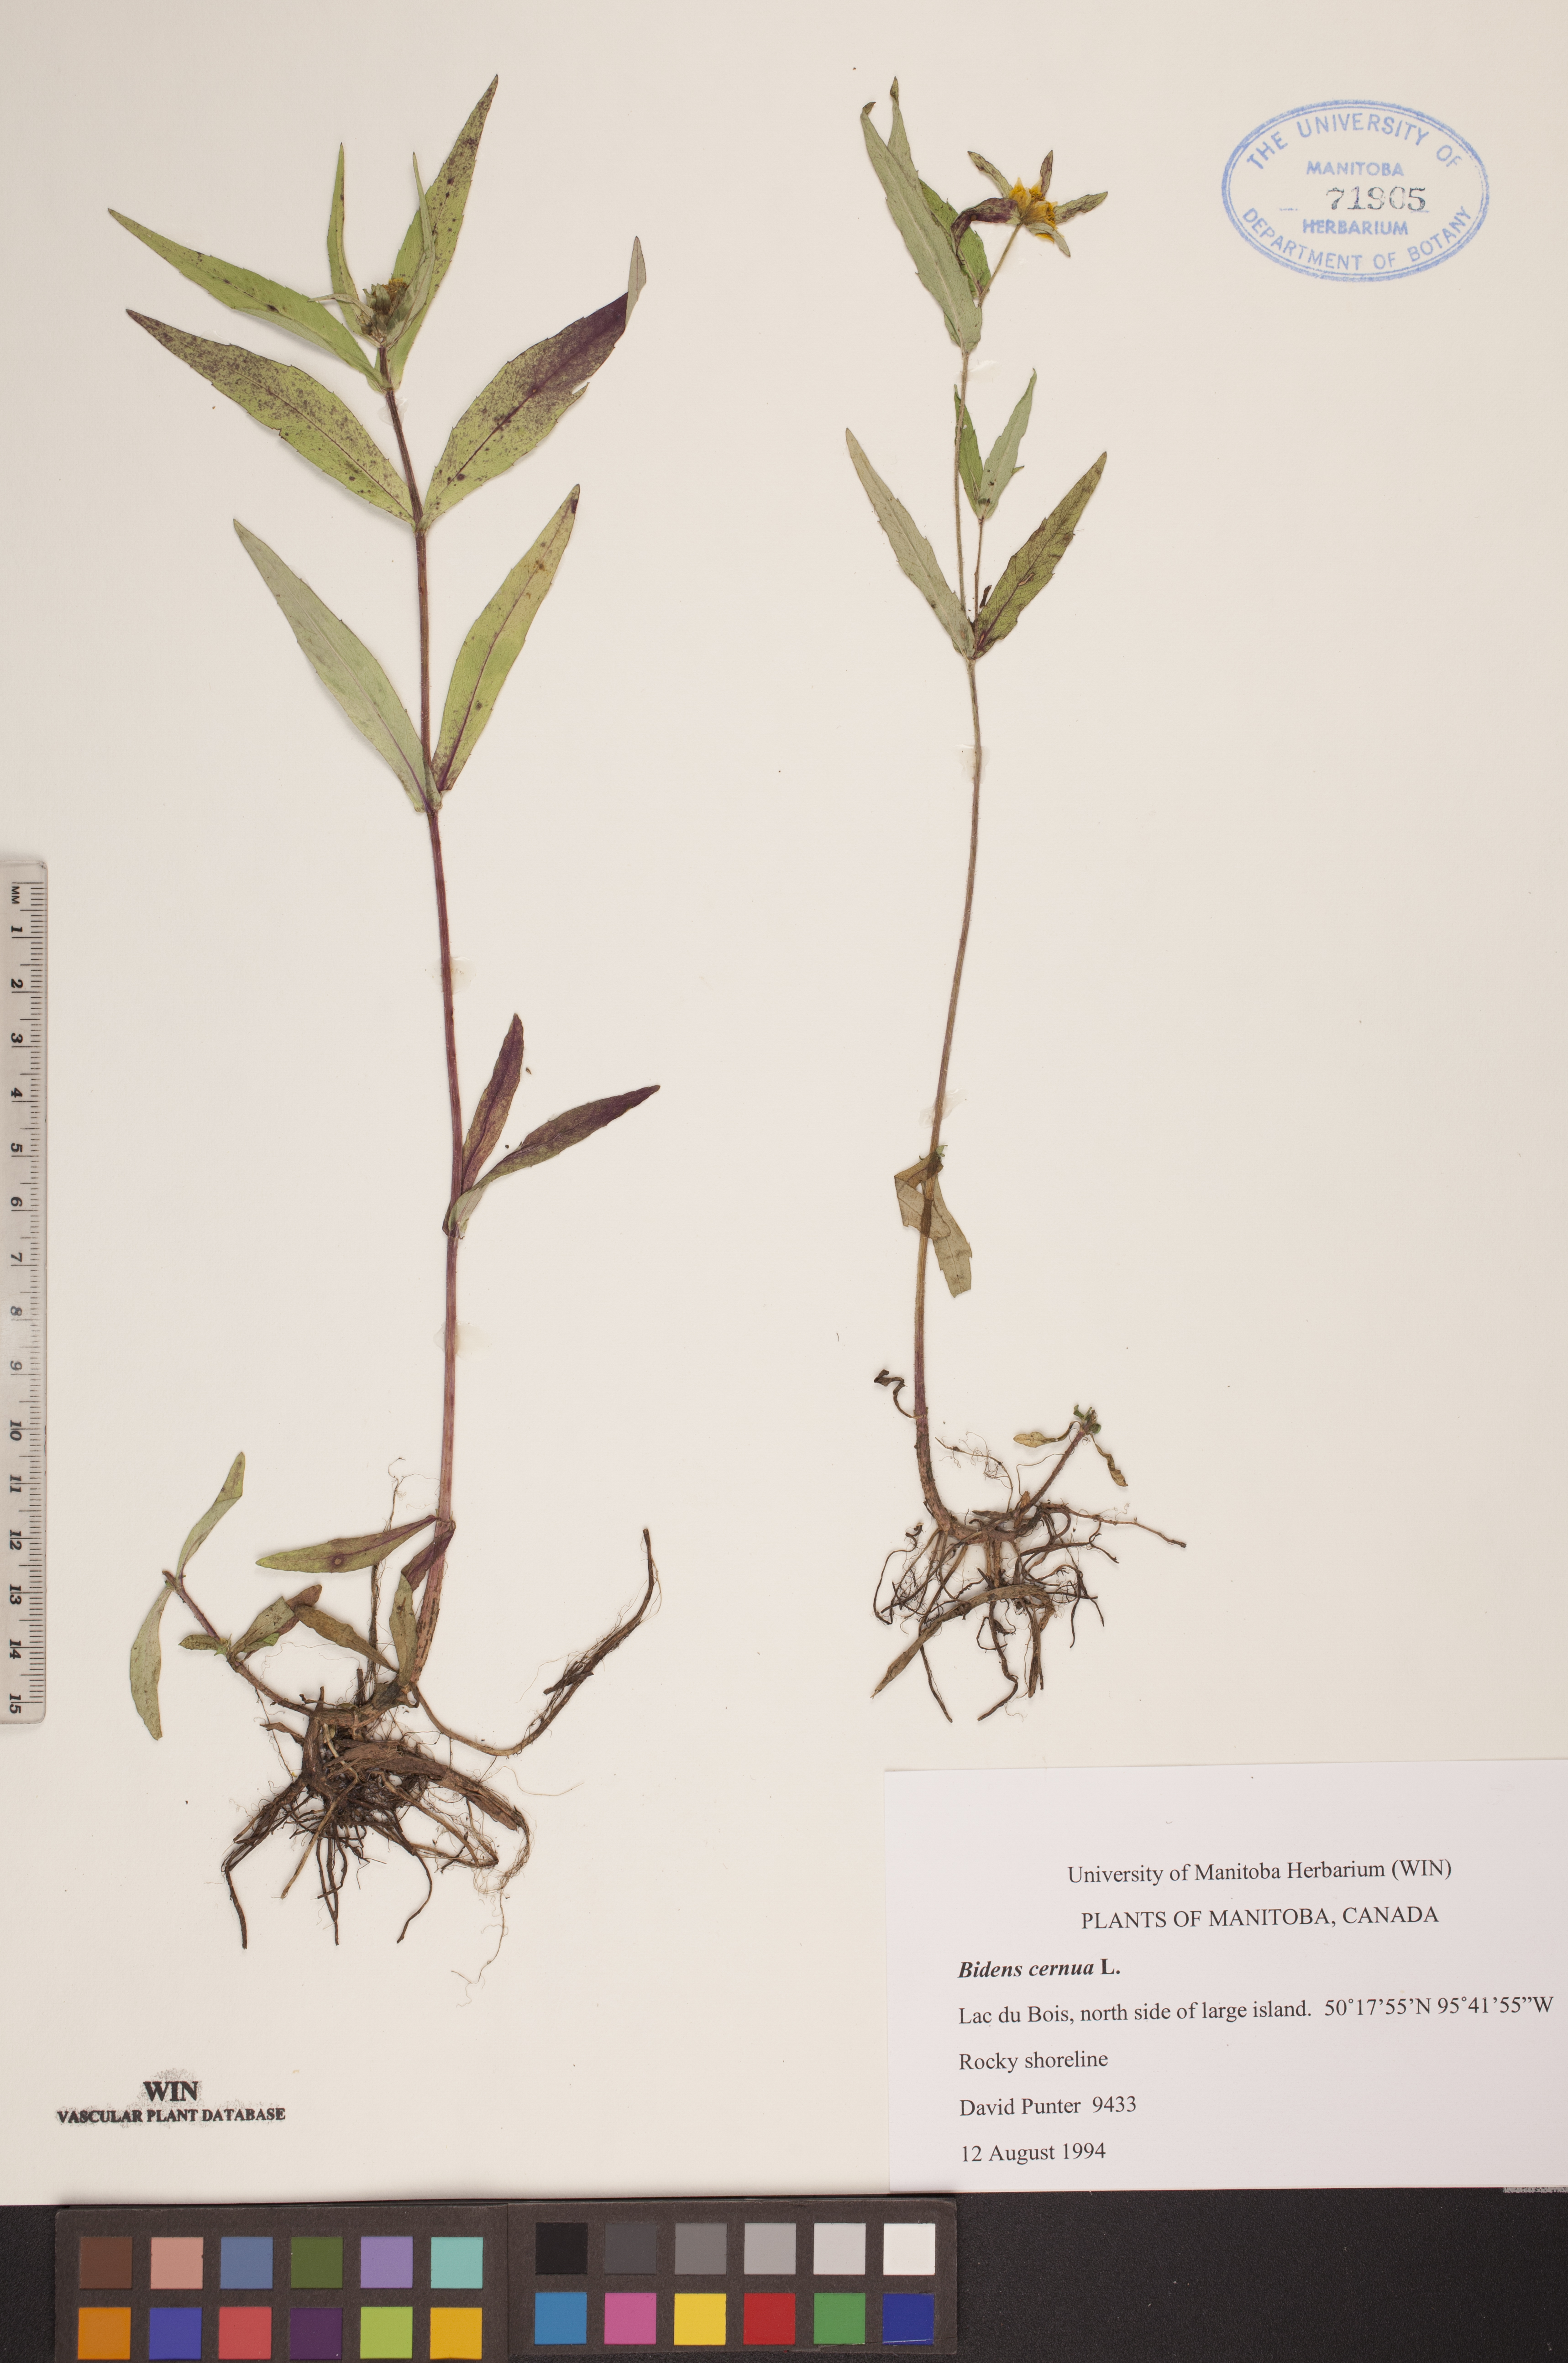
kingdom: Plantae
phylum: Tracheophyta
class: Magnoliopsida
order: Asterales
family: Asteraceae
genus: Bidens
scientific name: Bidens cernua
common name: Nodding bur-marigold
